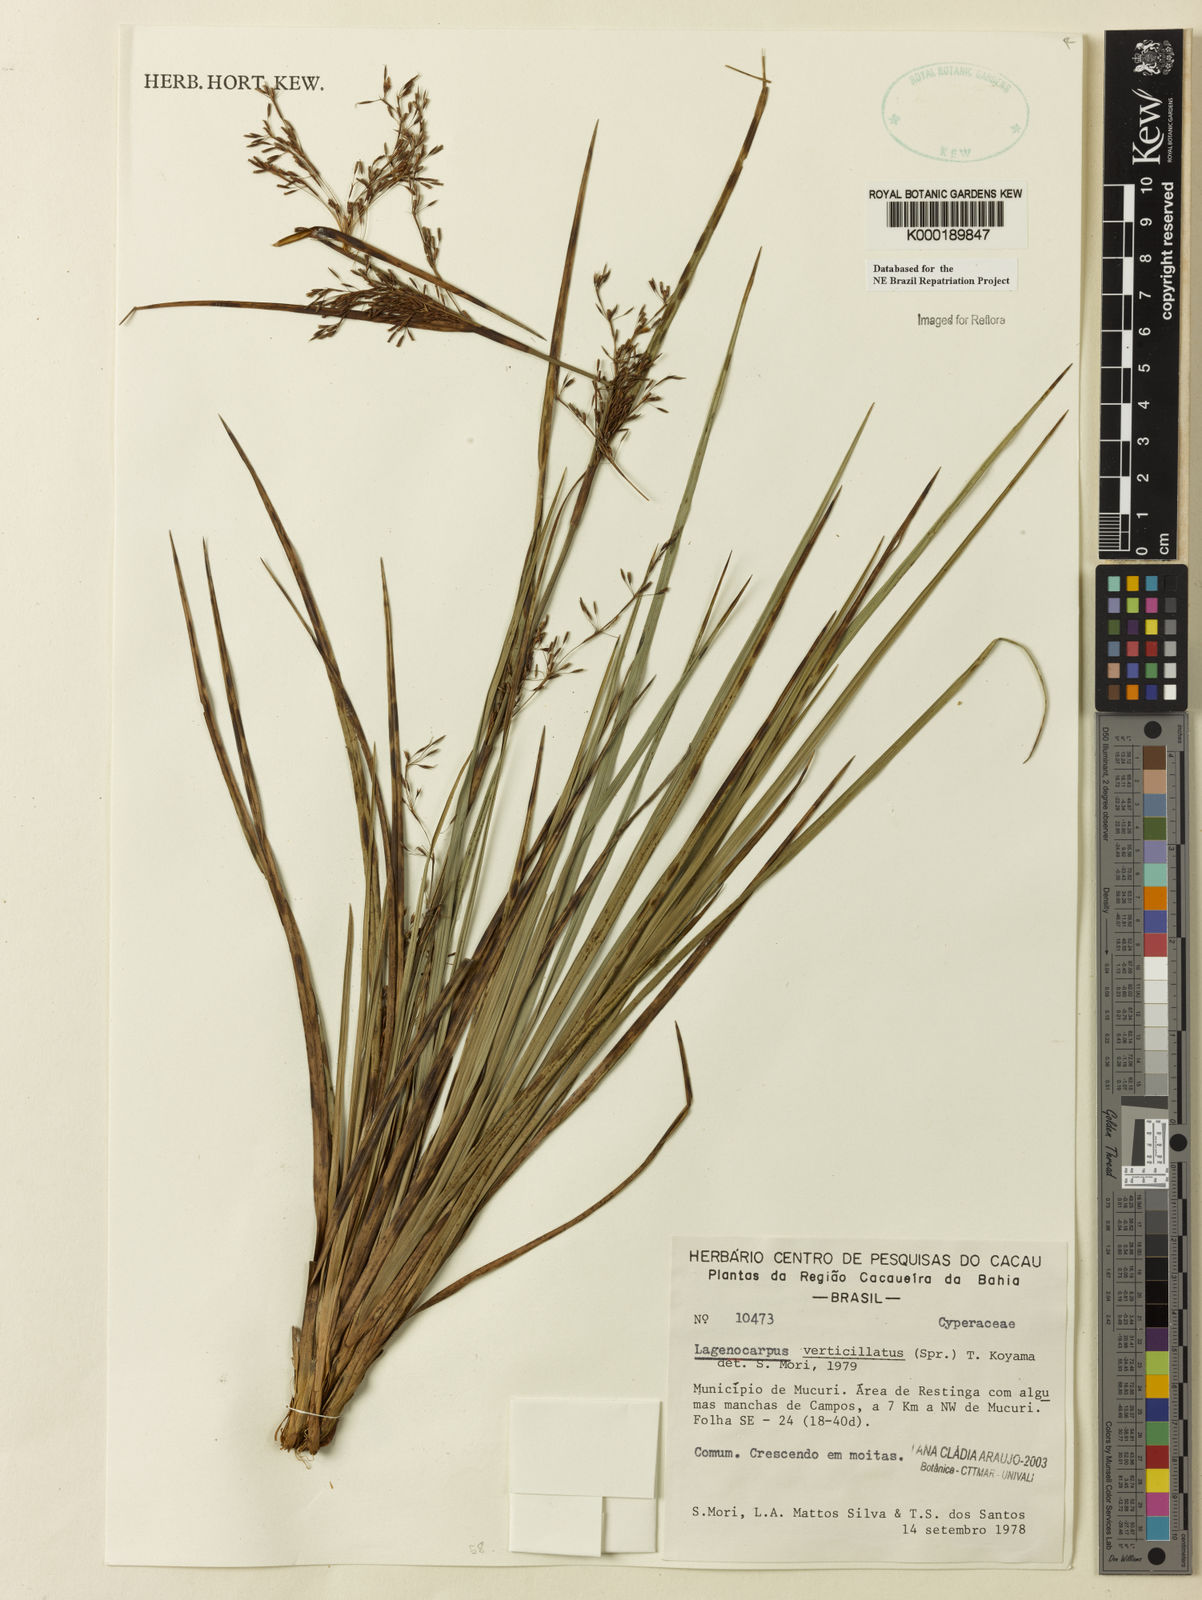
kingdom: Plantae
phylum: Tracheophyta
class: Liliopsida
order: Poales
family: Cyperaceae
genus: Cryptangium
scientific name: Cryptangium verticillatum
